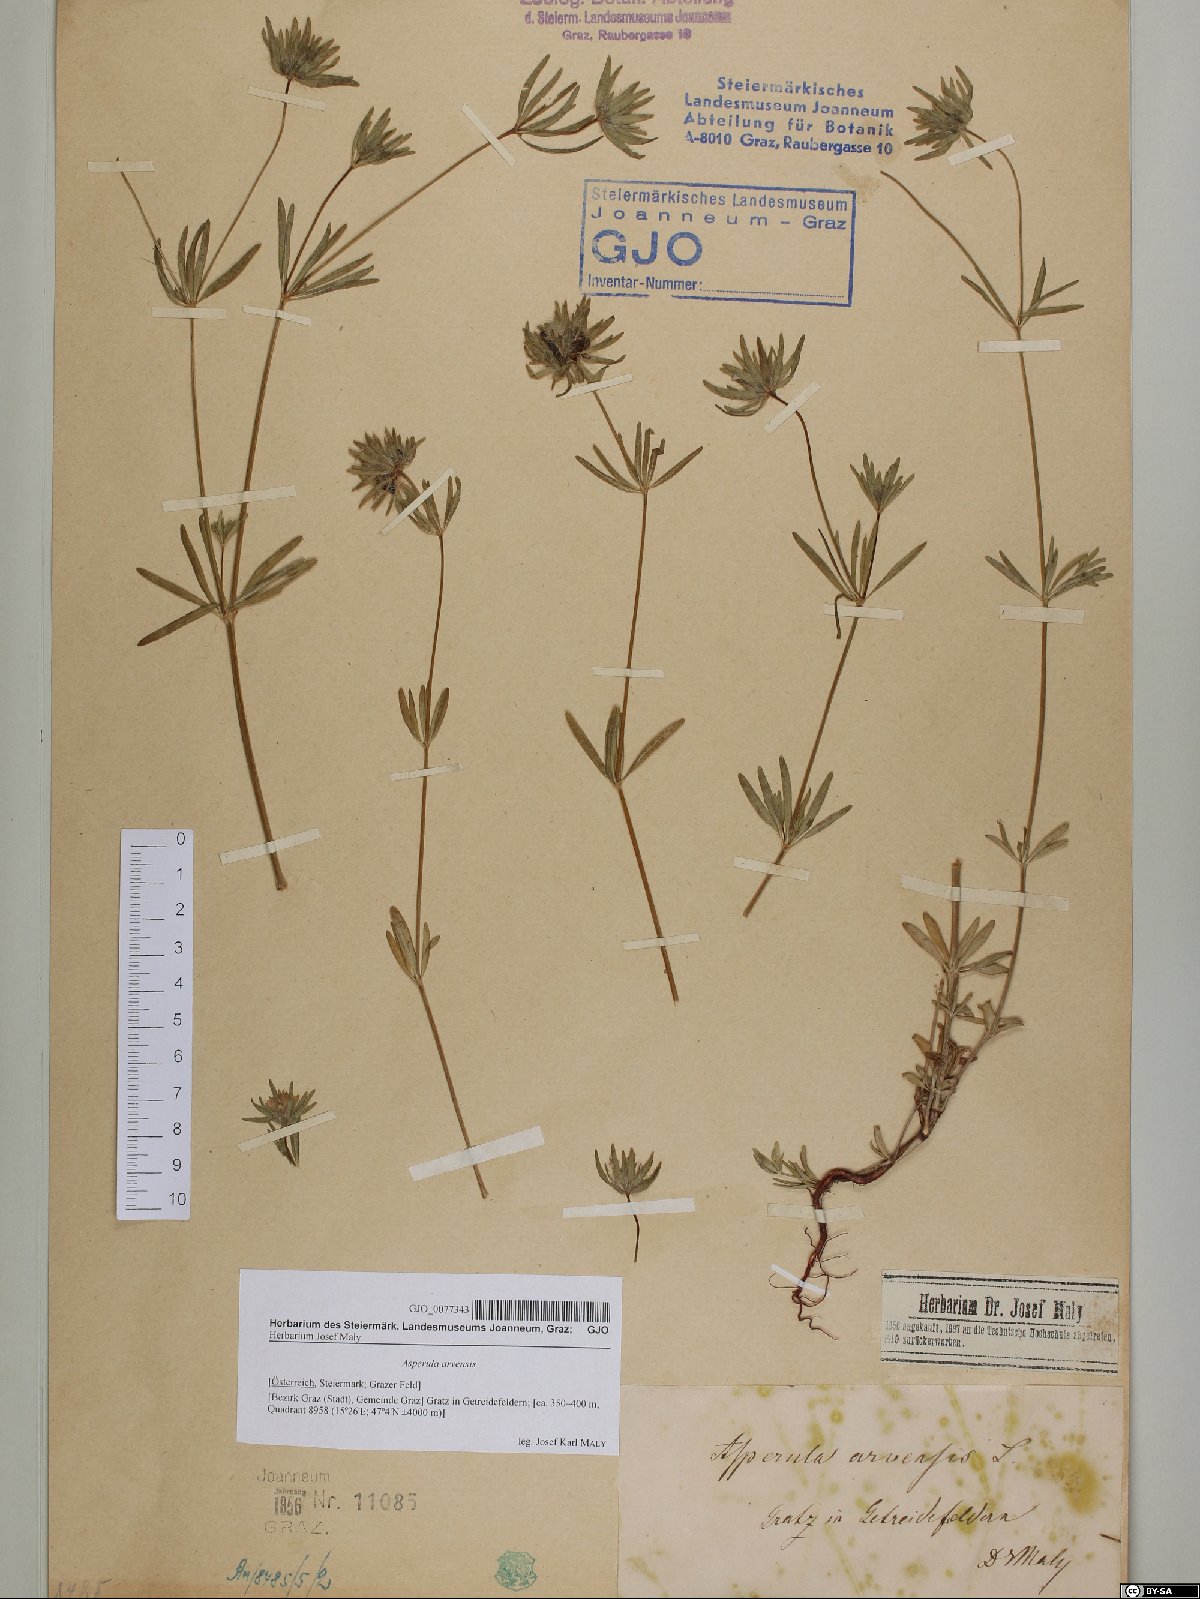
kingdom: Plantae
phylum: Tracheophyta
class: Magnoliopsida
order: Gentianales
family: Rubiaceae
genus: Asperula
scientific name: Asperula arvensis
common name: Blue woodruff
